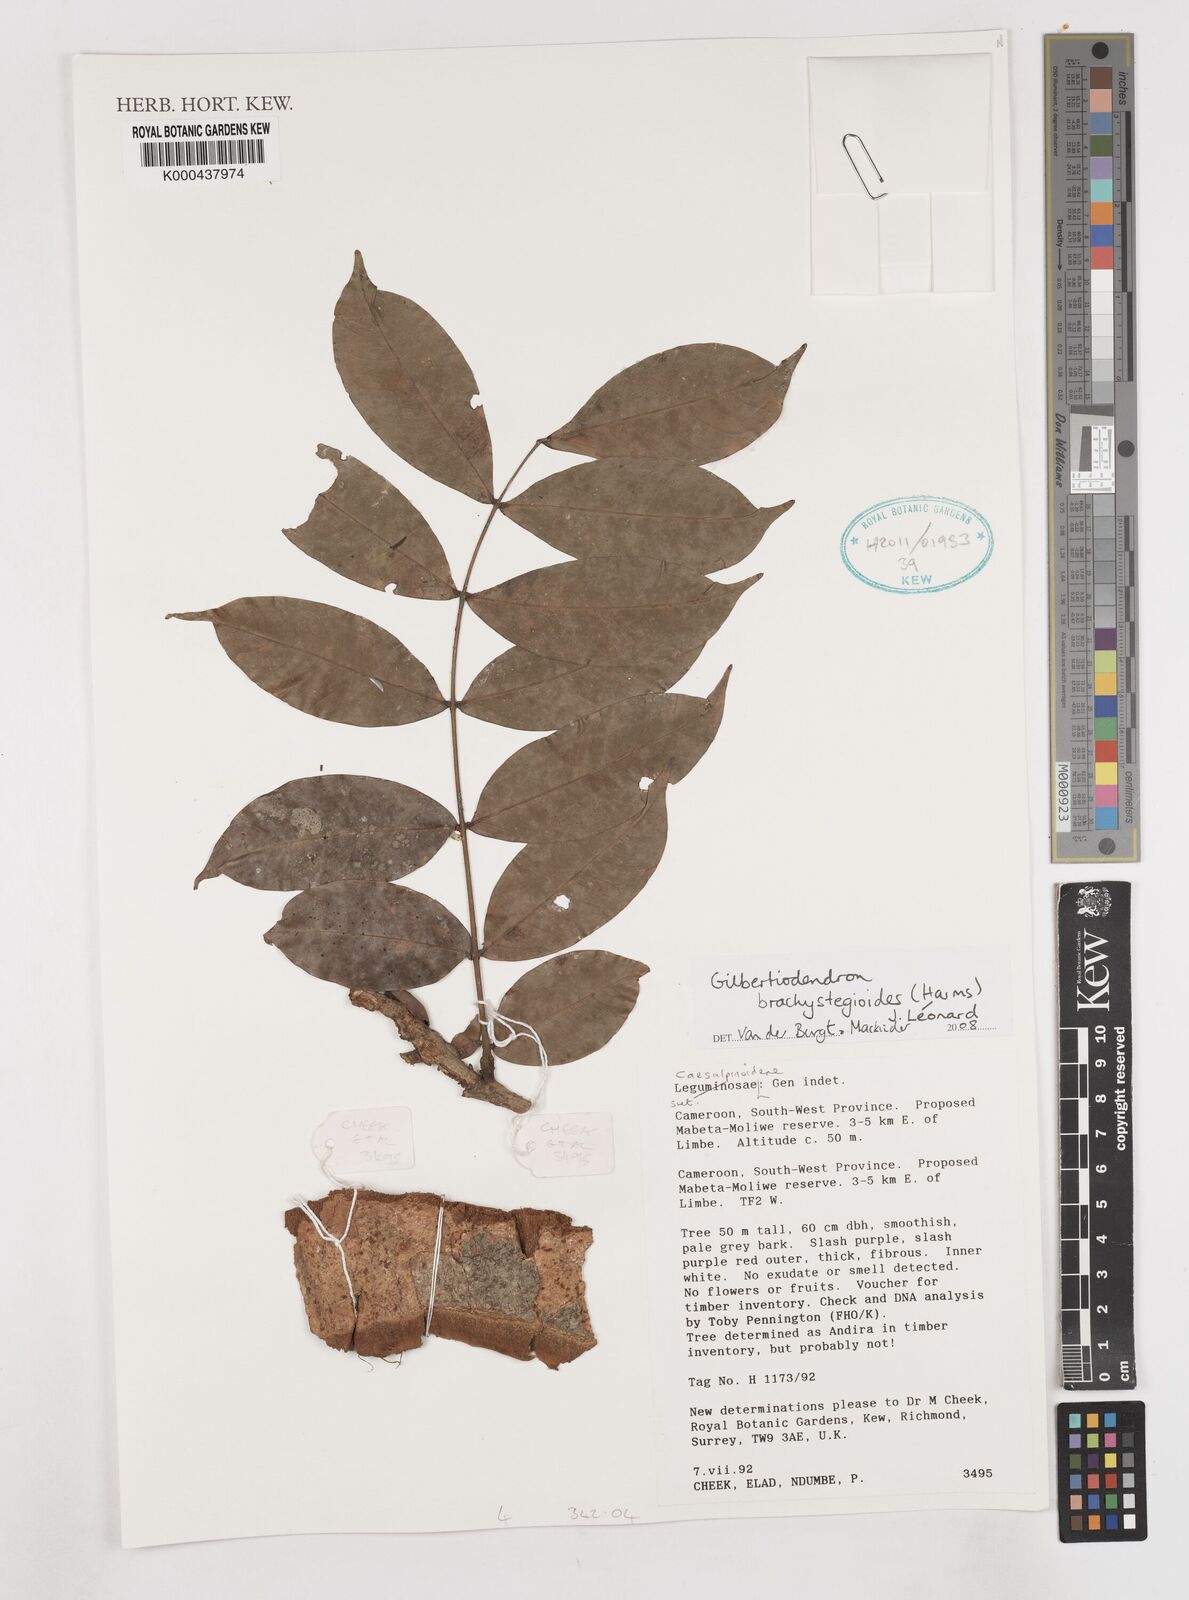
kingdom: Plantae
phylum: Tracheophyta
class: Magnoliopsida
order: Fabales
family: Fabaceae
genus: Gilbertiodendron
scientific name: Gilbertiodendron brachystegioides
